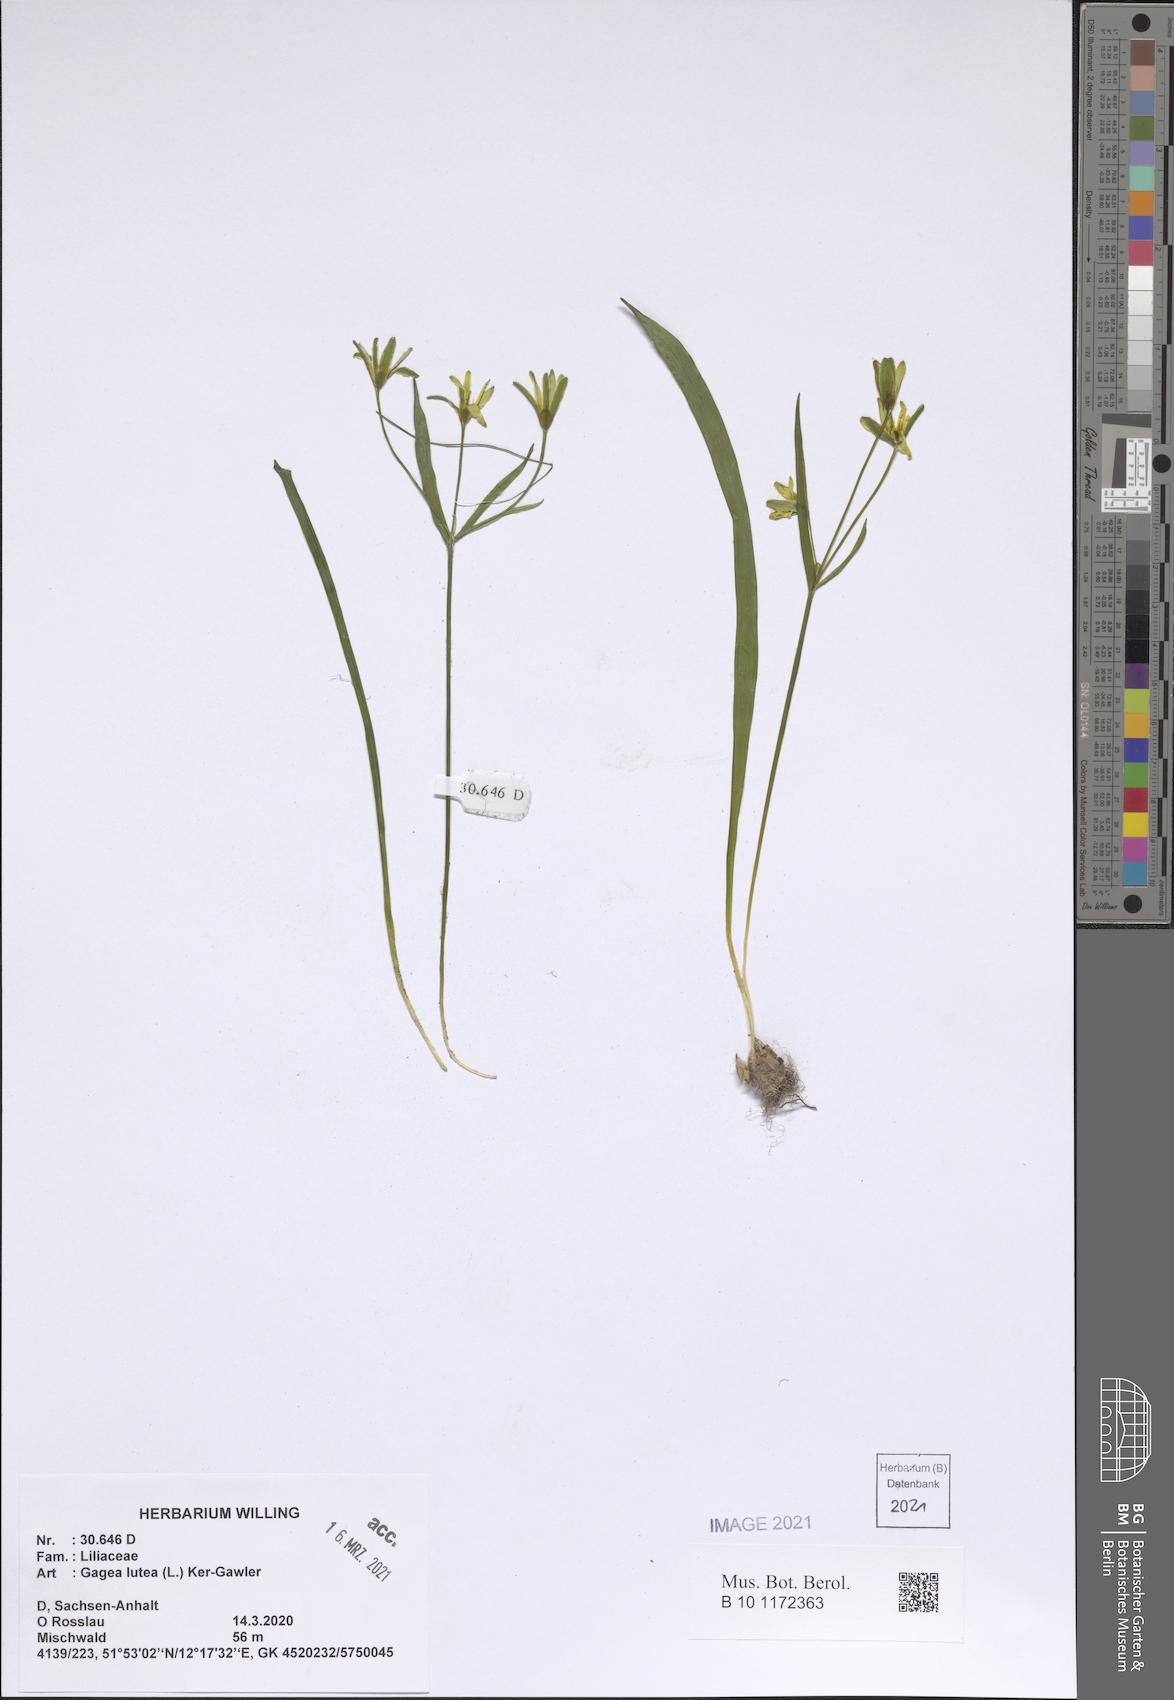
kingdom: Plantae
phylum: Tracheophyta
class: Liliopsida
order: Liliales
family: Liliaceae
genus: Gagea
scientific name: Gagea lutea
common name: Yellow star-of-bethlehem
